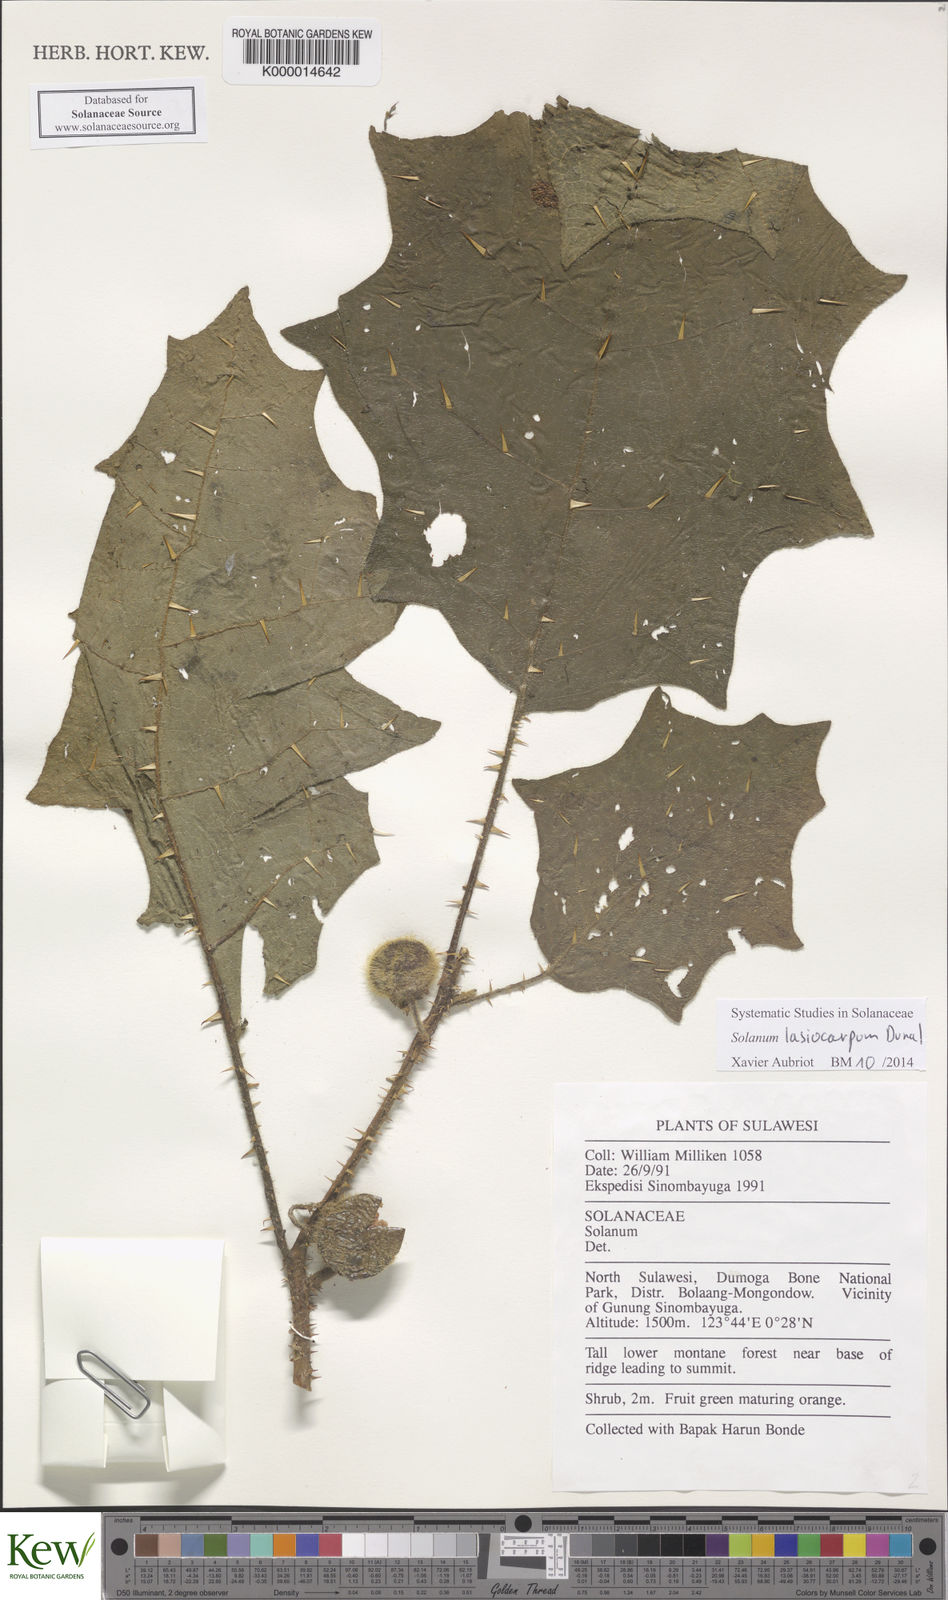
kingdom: Plantae
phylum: Tracheophyta
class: Magnoliopsida
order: Solanales
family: Solanaceae
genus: Solanum
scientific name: Solanum lasiocarpum
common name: Indian nightshade
